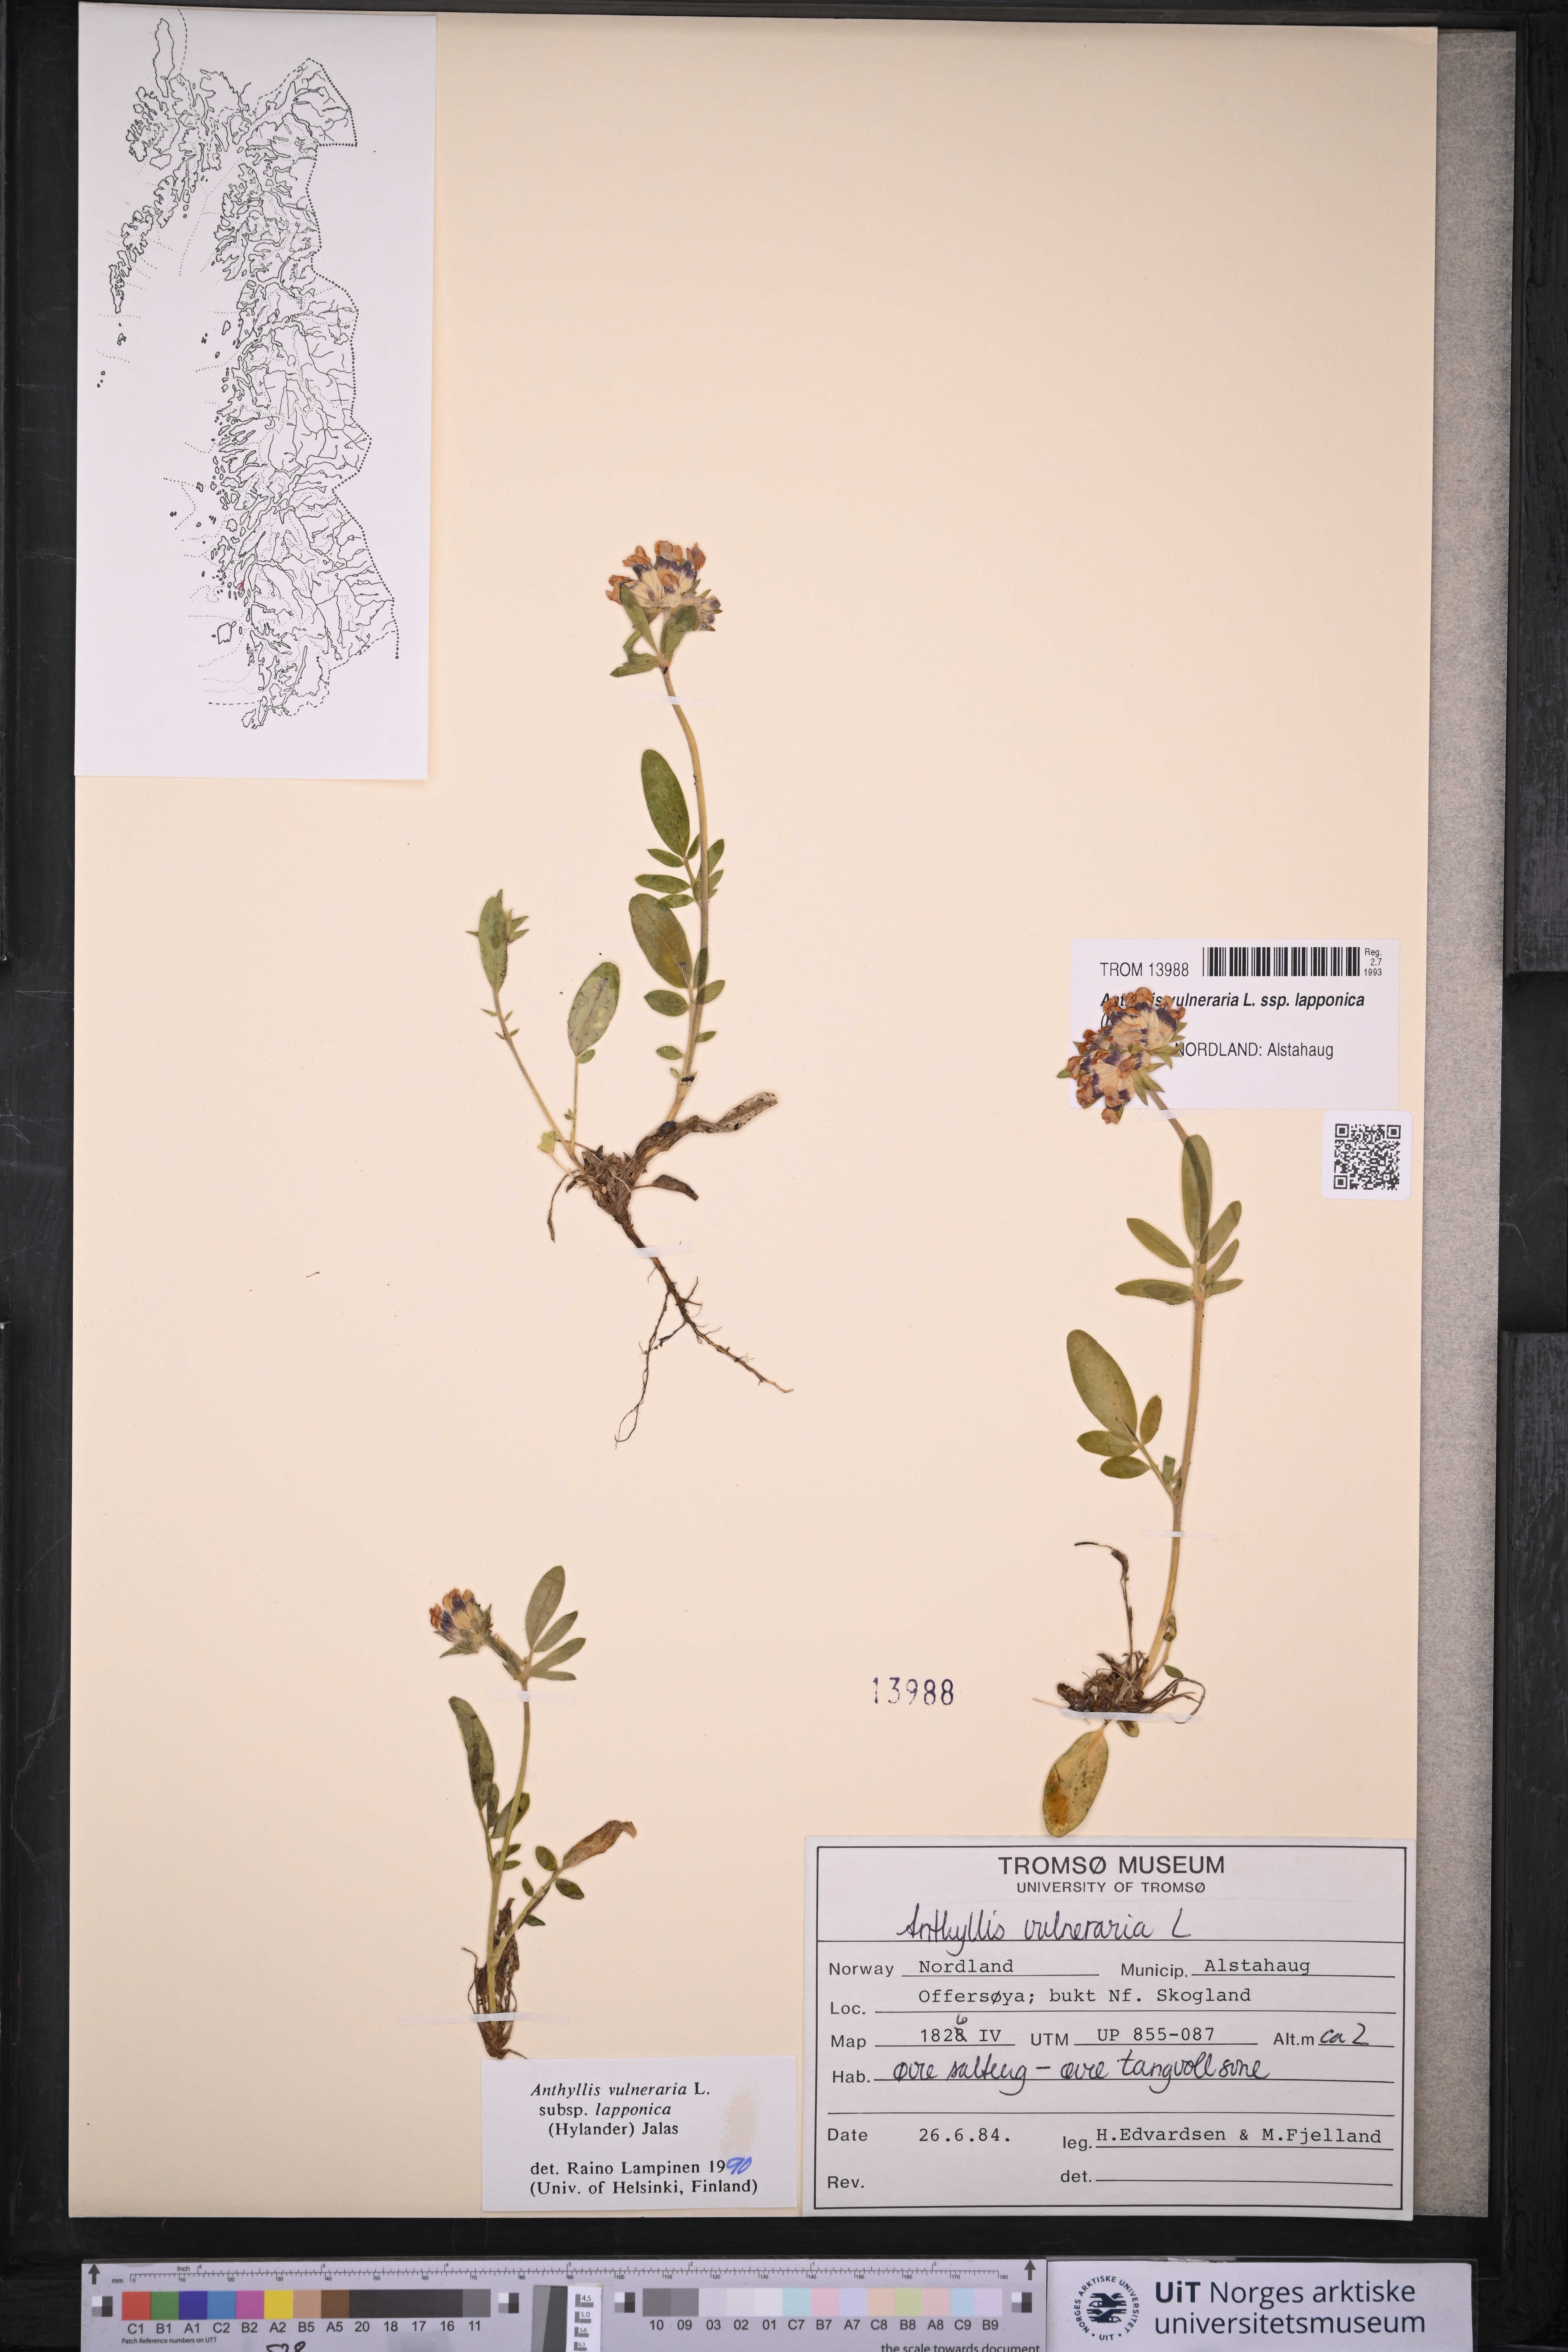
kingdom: Plantae
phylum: Tracheophyta
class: Magnoliopsida
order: Fabales
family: Fabaceae
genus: Anthyllis
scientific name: Anthyllis vulneraria
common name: Kidney vetch
